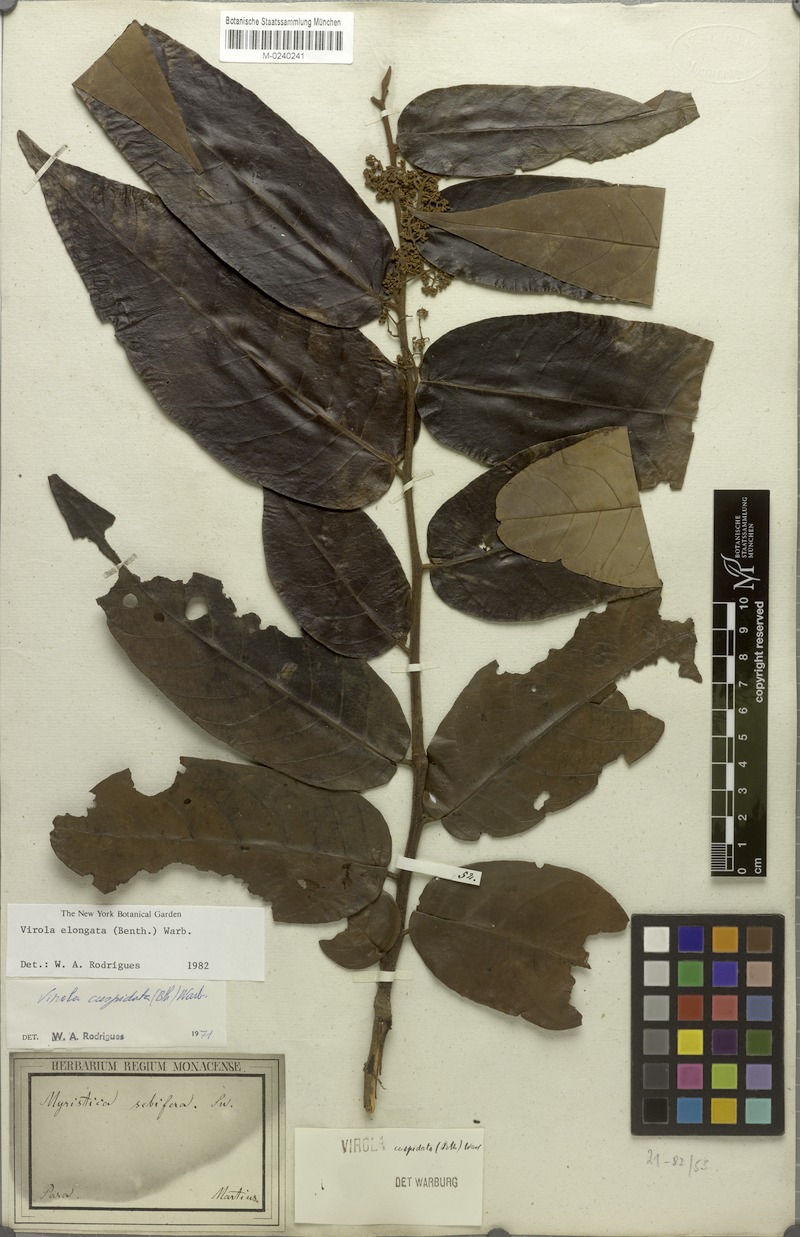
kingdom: Plantae
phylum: Tracheophyta
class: Magnoliopsida
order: Magnoliales
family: Myristicaceae
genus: Virola
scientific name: Virola elongata
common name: Sacred virola
